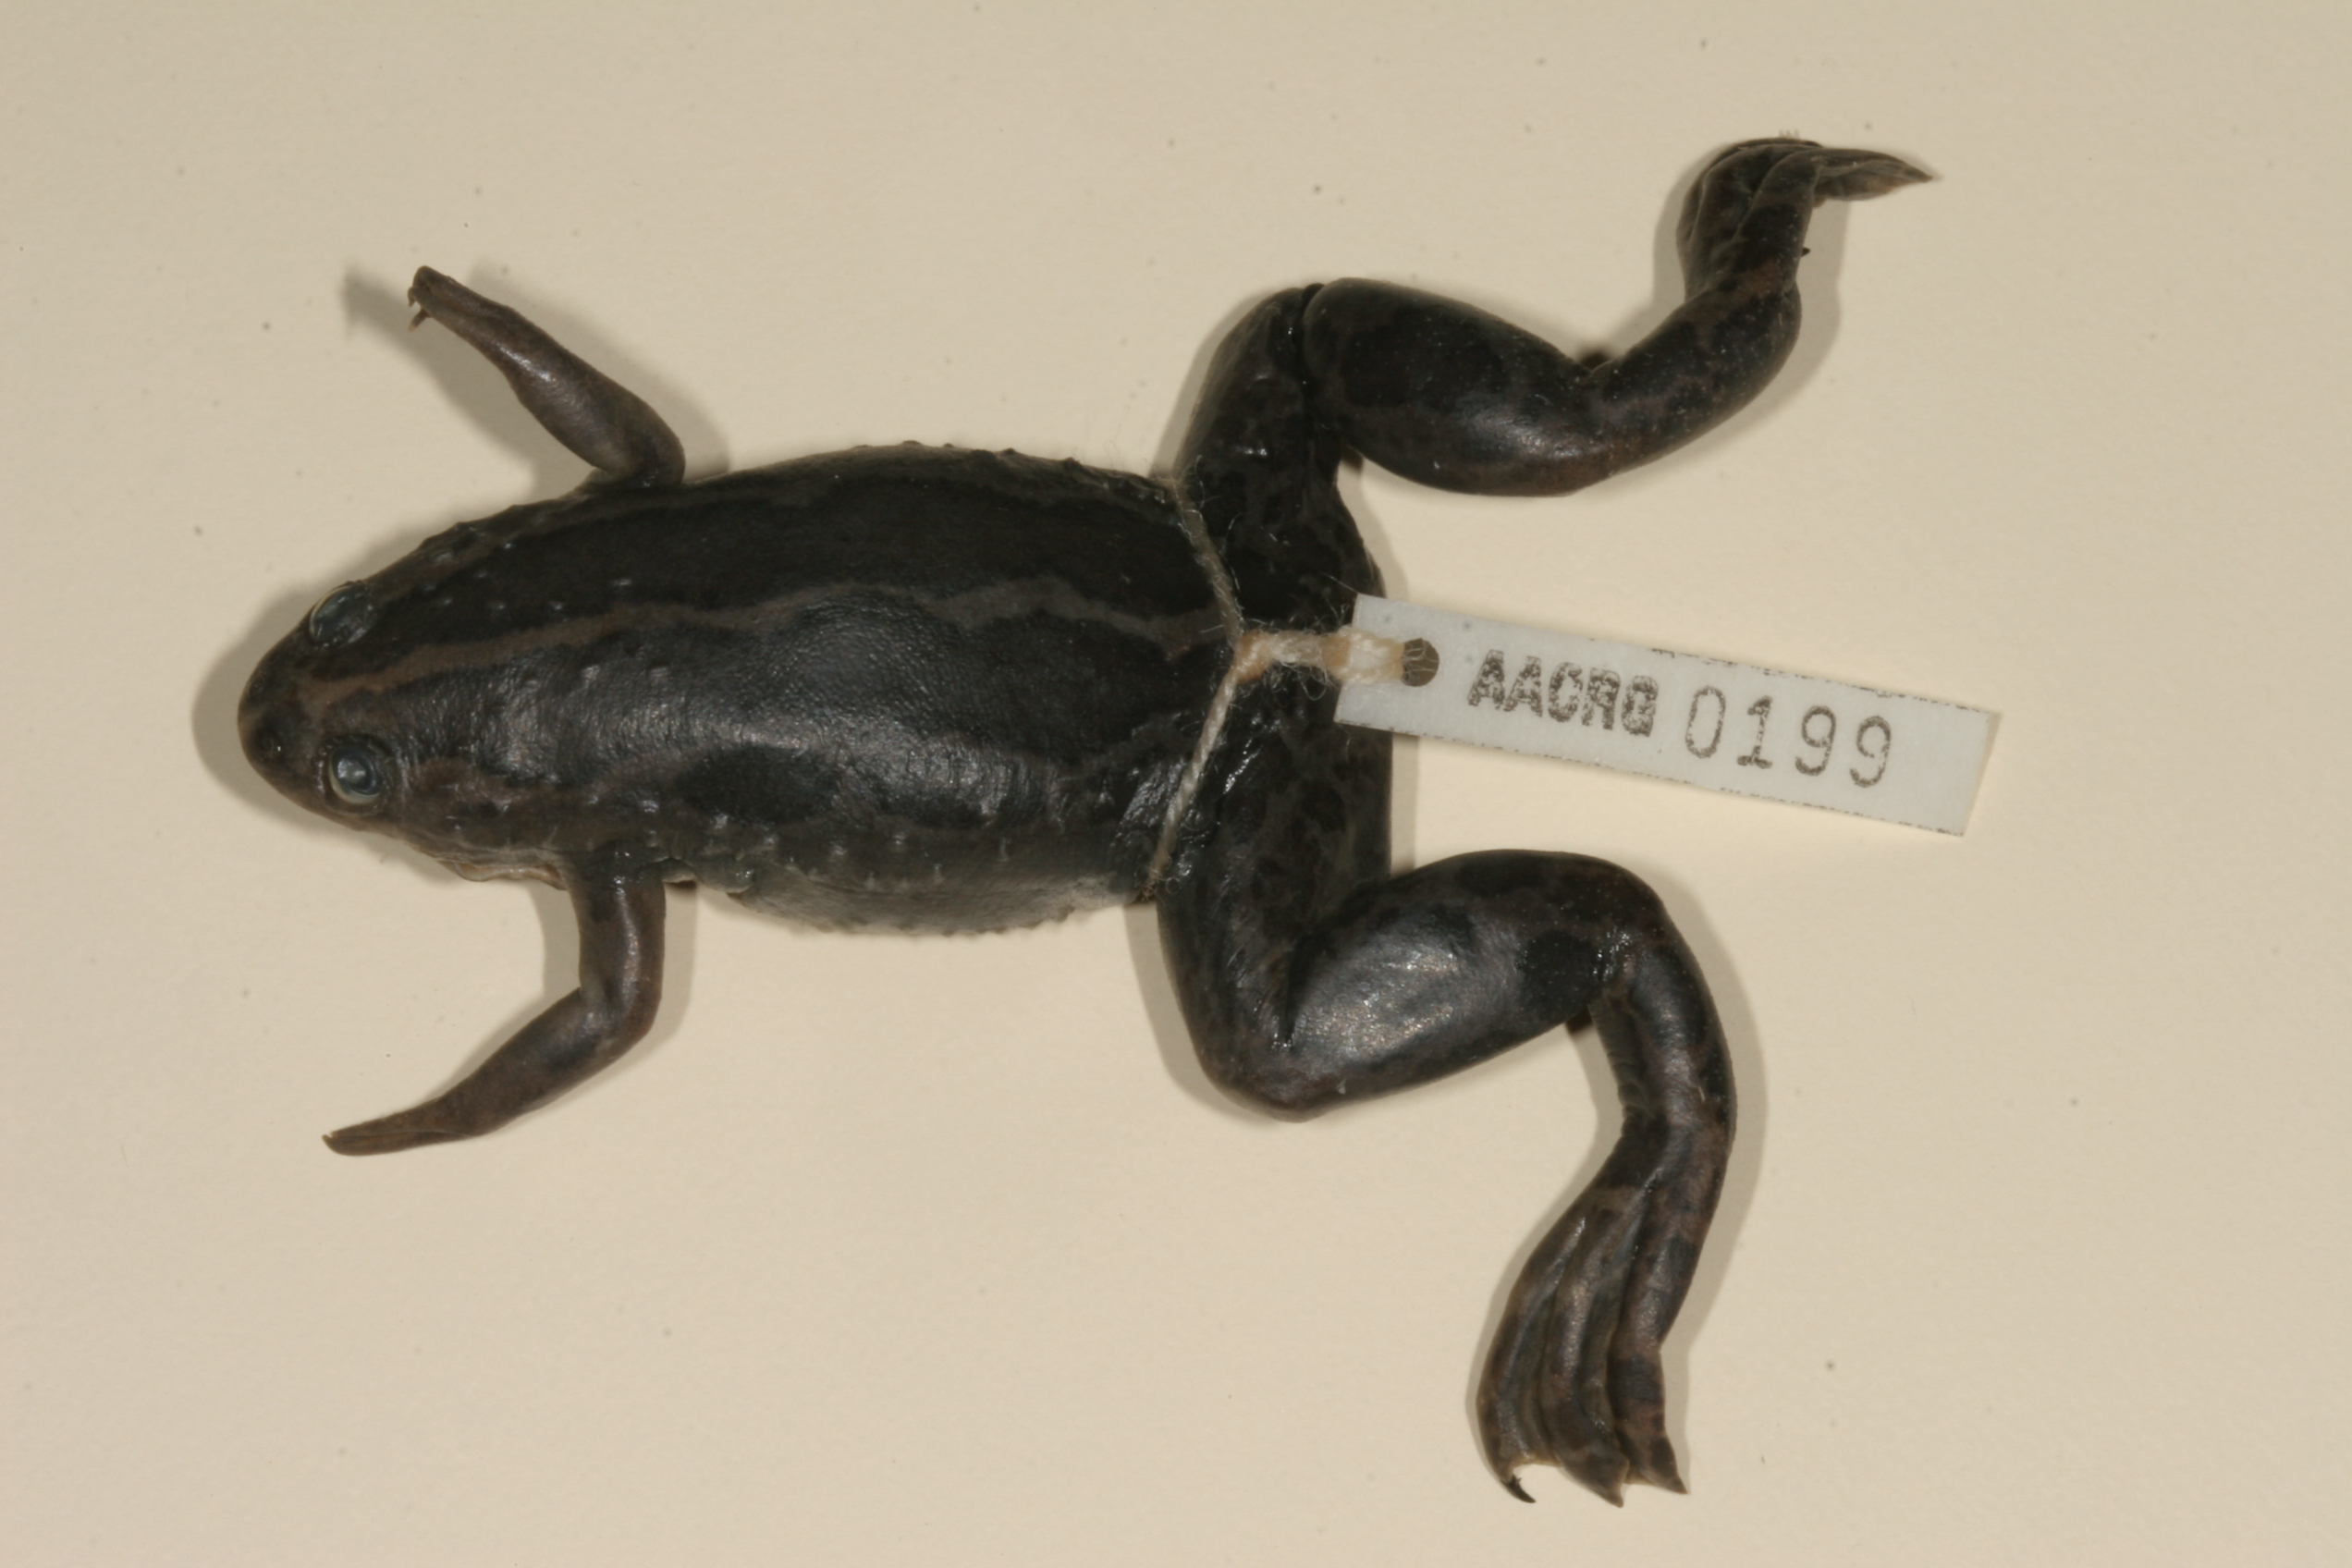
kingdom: Animalia
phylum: Chordata
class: Amphibia
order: Anura
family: Pipidae
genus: Xenopus
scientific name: Xenopus gilli
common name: Gill's platanna
